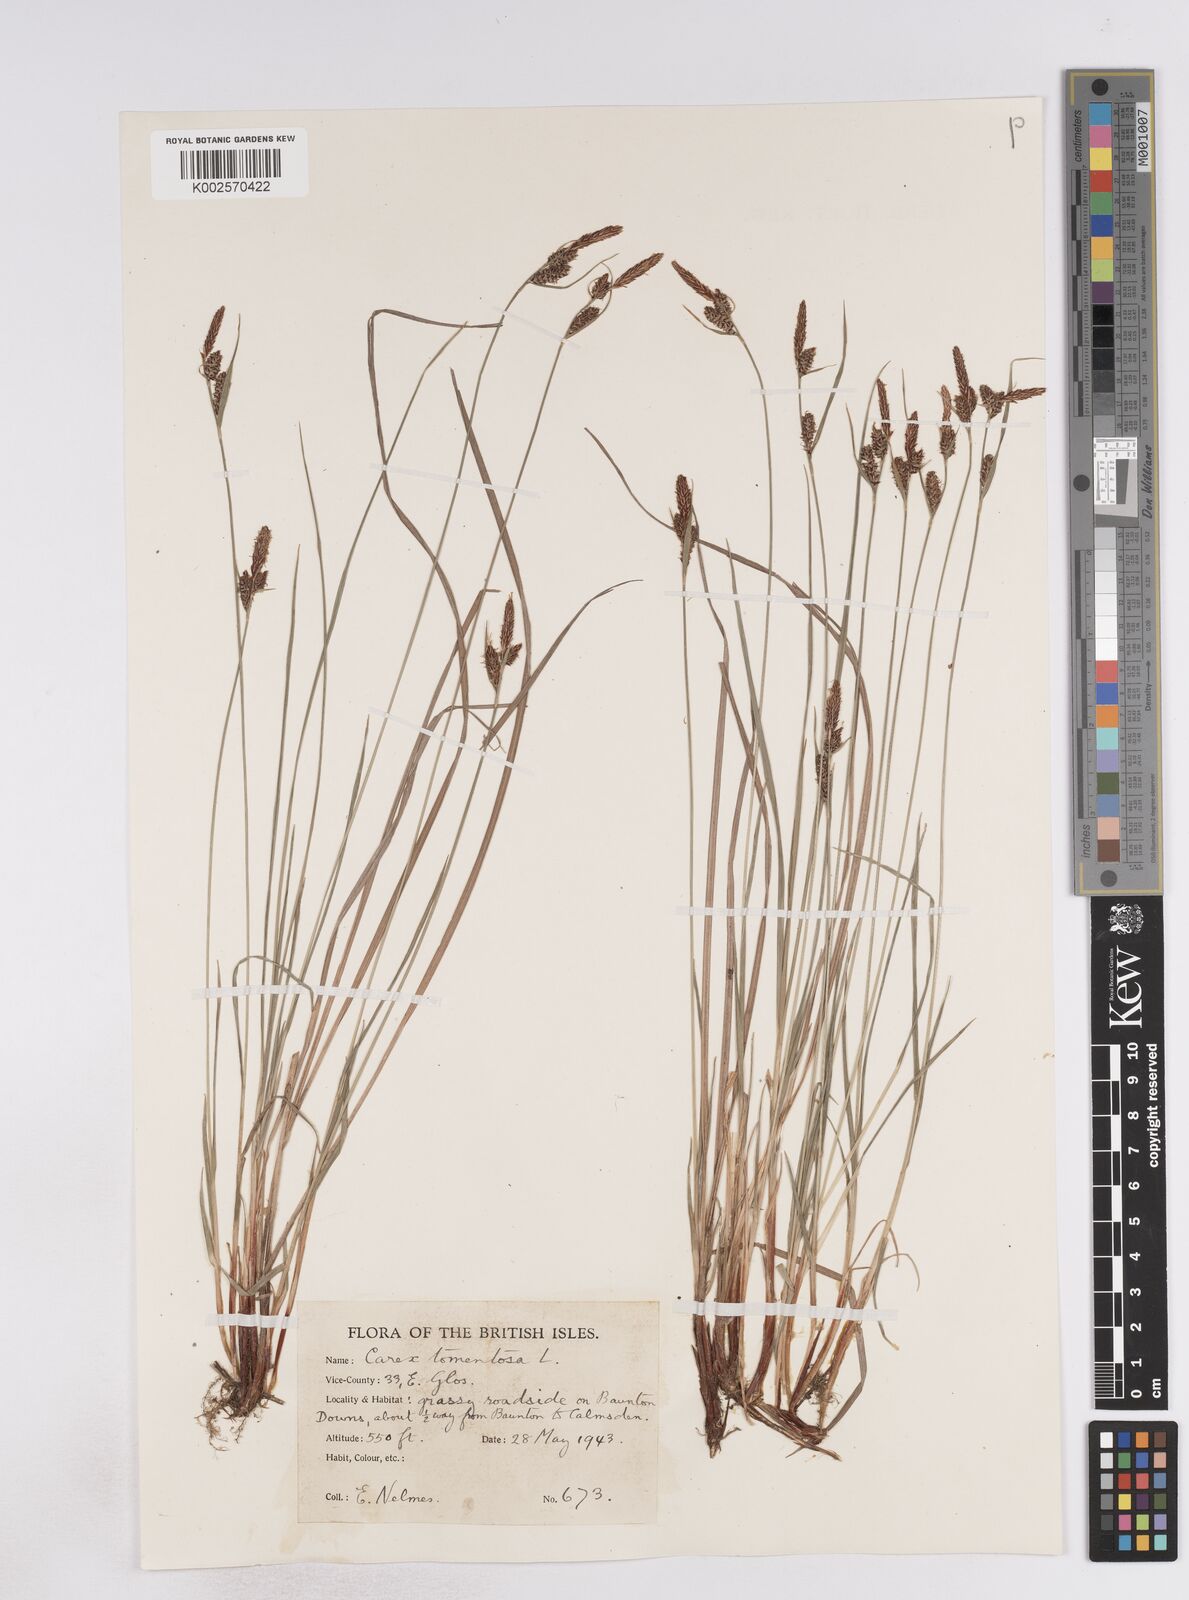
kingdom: Plantae
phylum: Tracheophyta
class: Liliopsida
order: Poales
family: Cyperaceae
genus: Carex
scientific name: Carex montana
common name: Soft-leaved sedge
